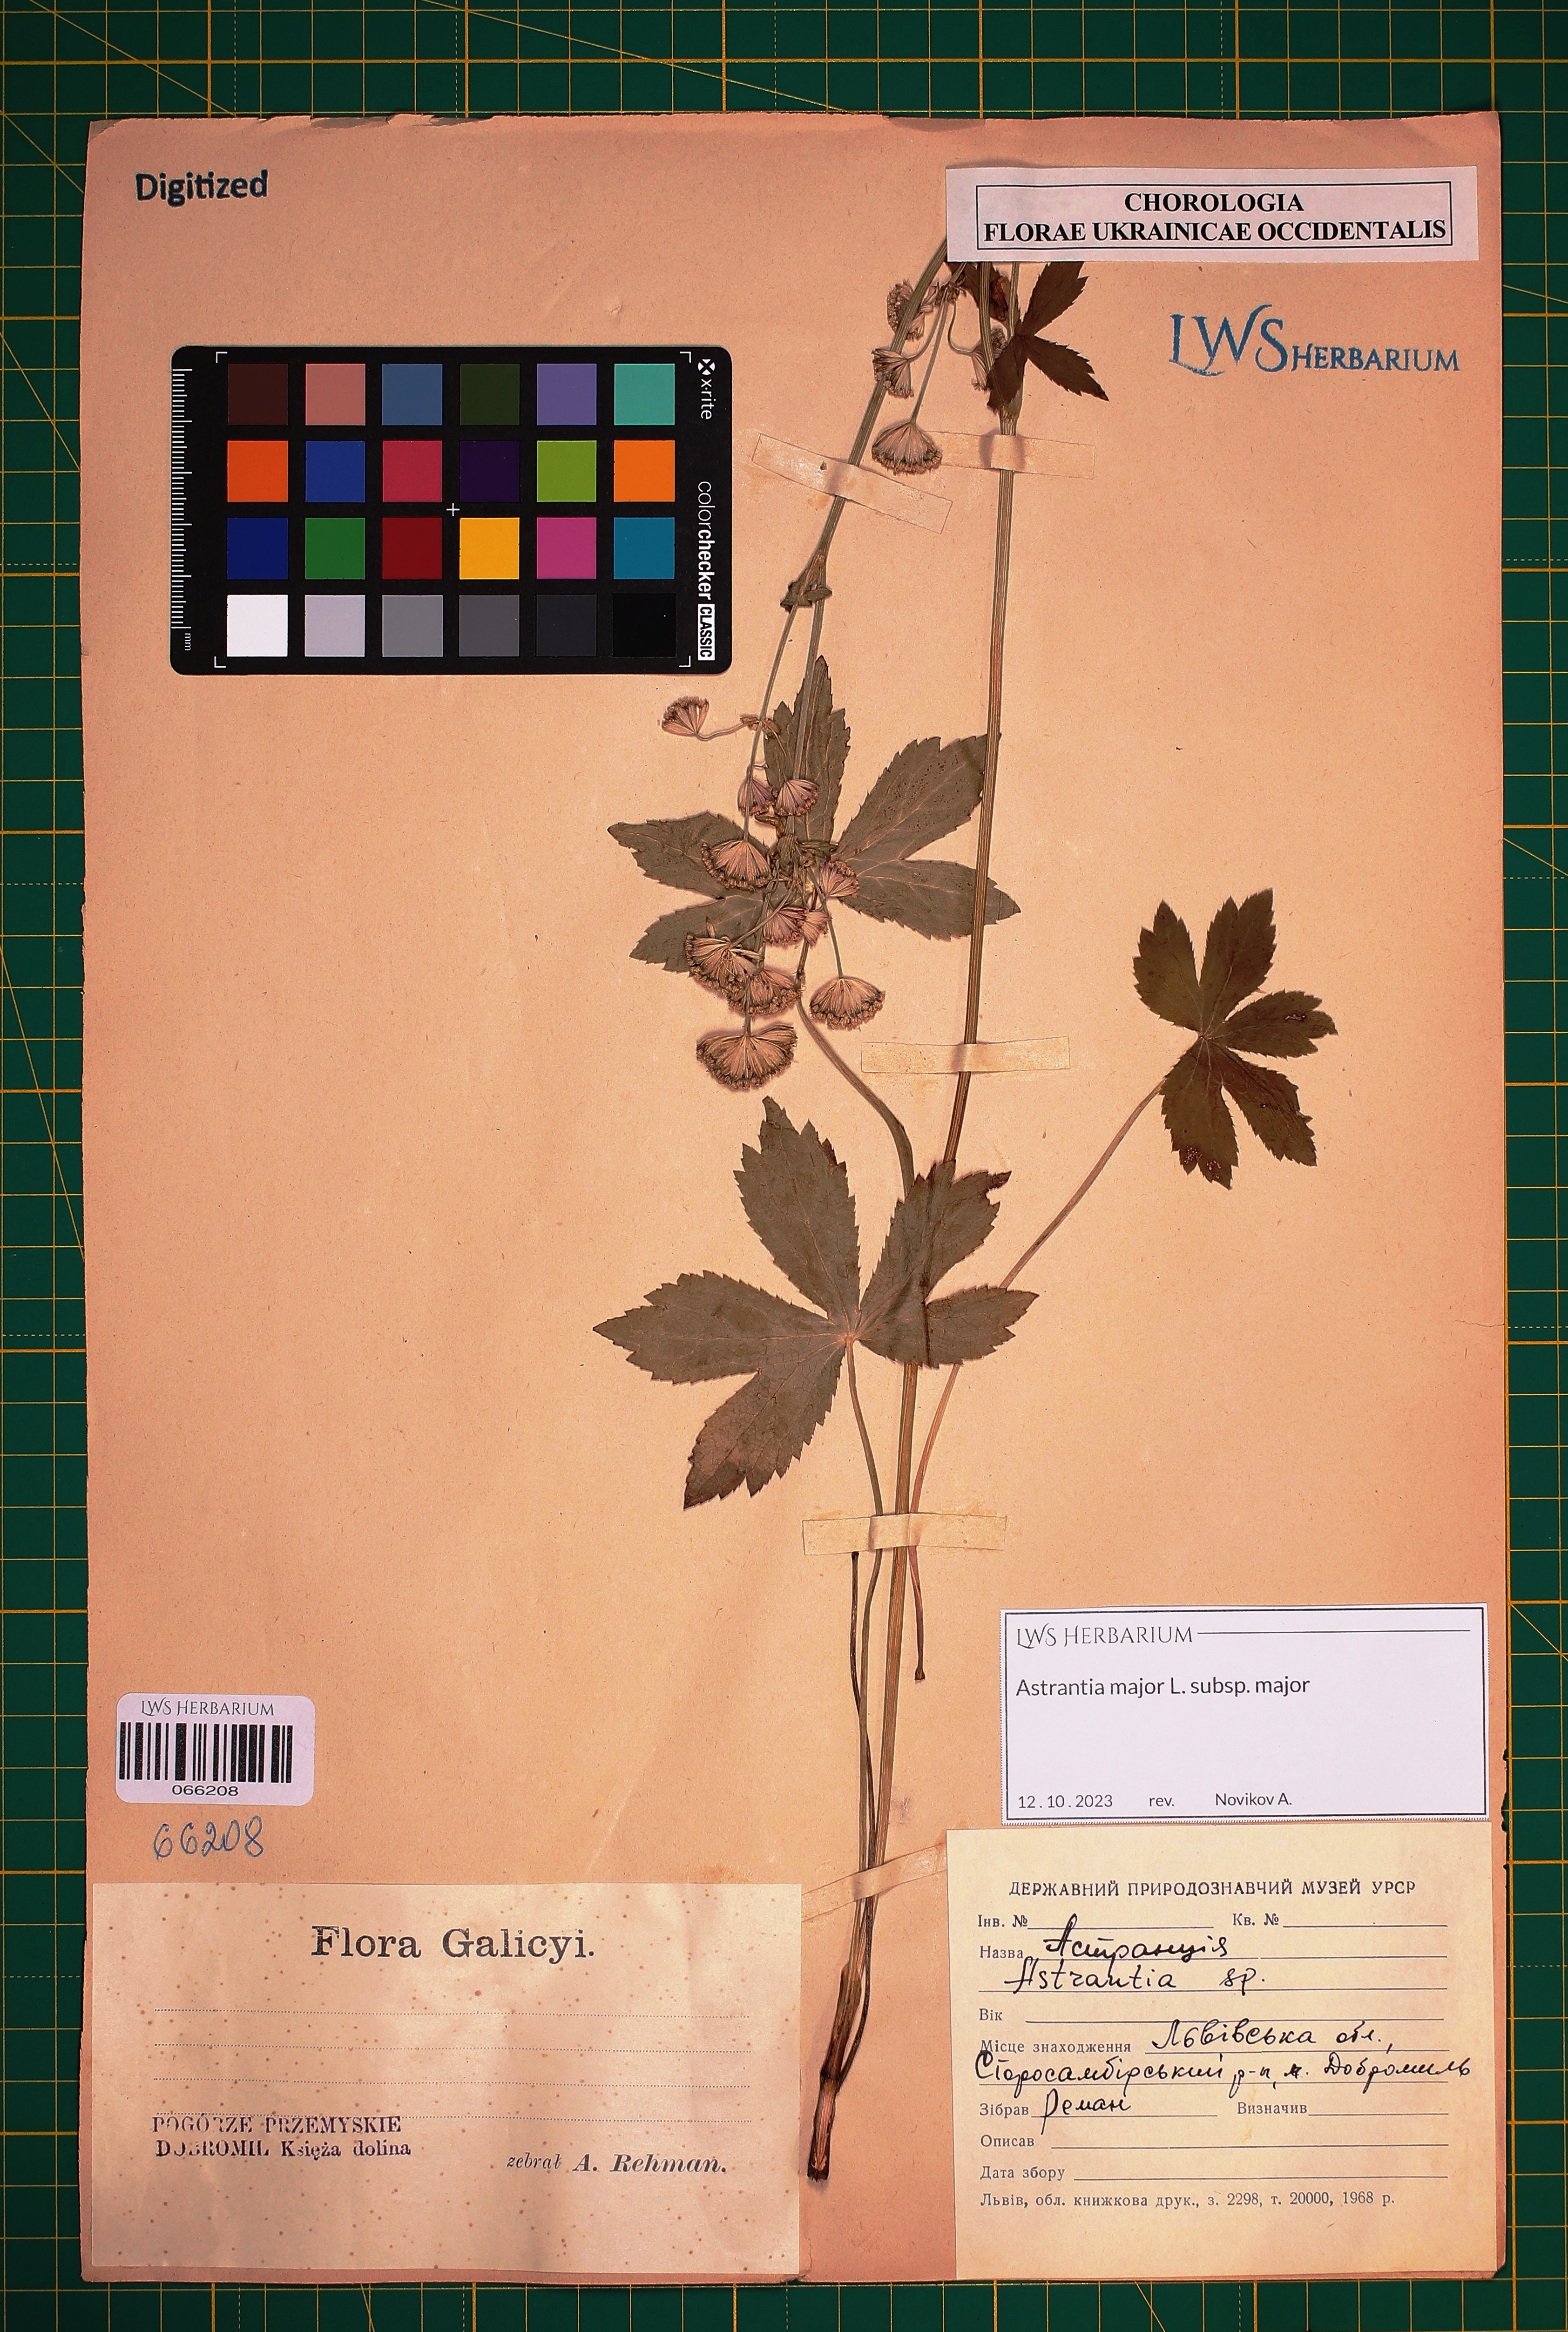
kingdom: Plantae
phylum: Tracheophyta
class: Magnoliopsida
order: Apiales
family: Apiaceae
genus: Astrantia
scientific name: Astrantia major
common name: Greater masterwort
